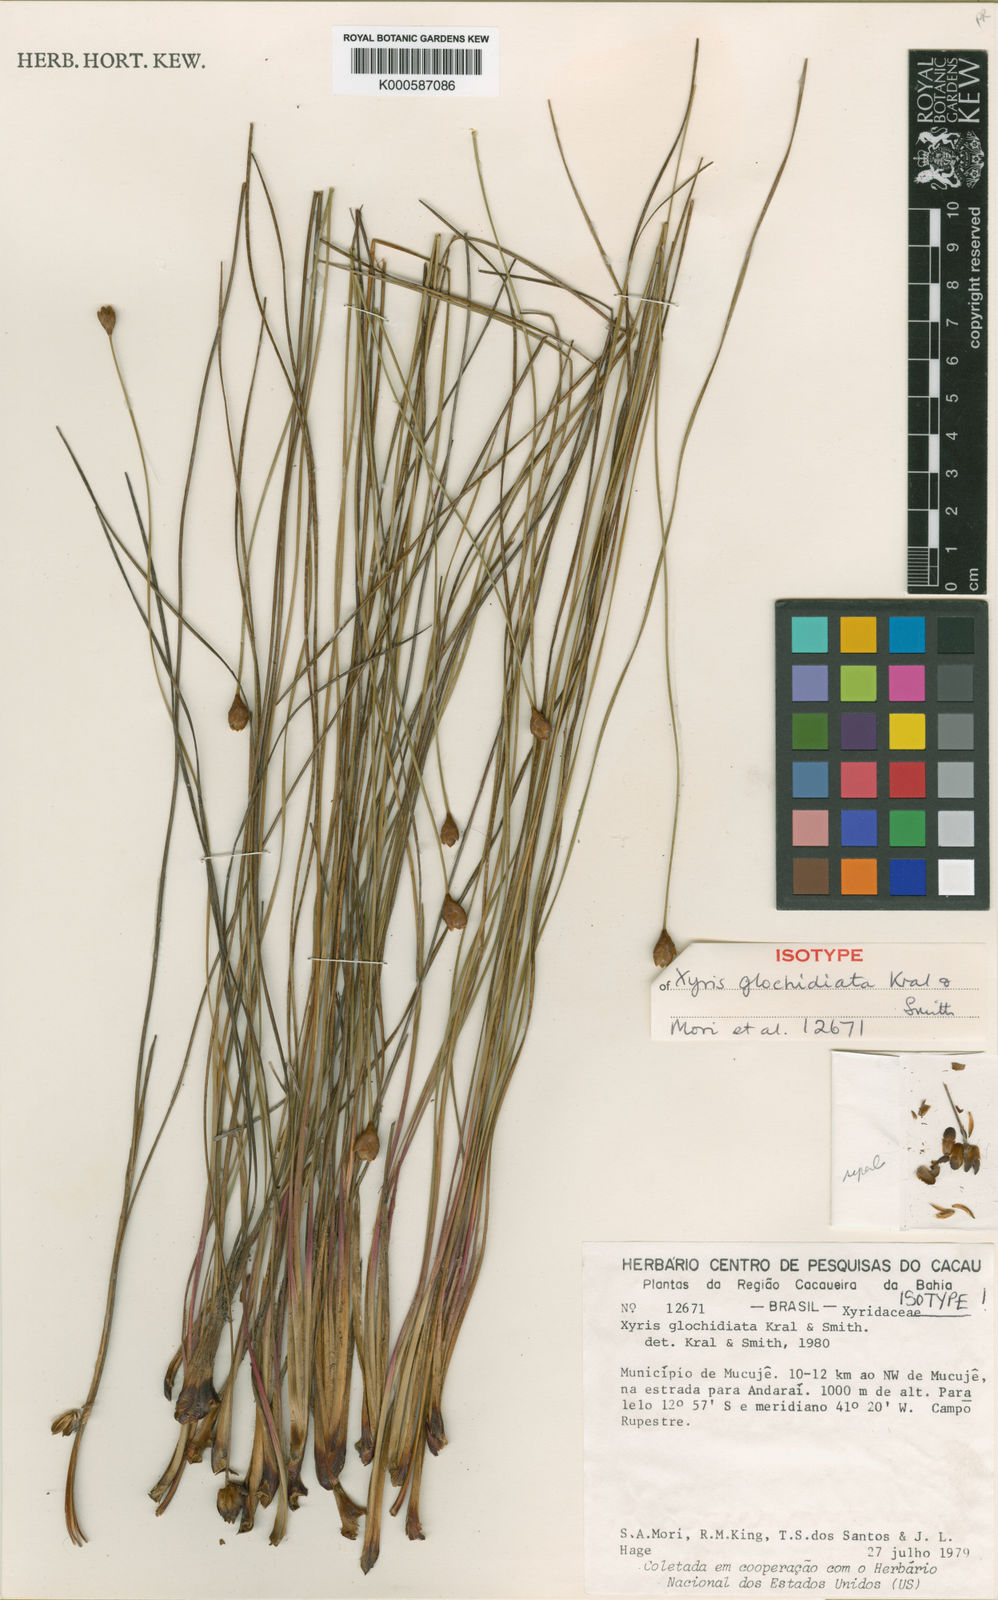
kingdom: Plantae
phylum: Tracheophyta
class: Liliopsida
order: Poales
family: Xyridaceae
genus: Xyris
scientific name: Xyris glochidiata
